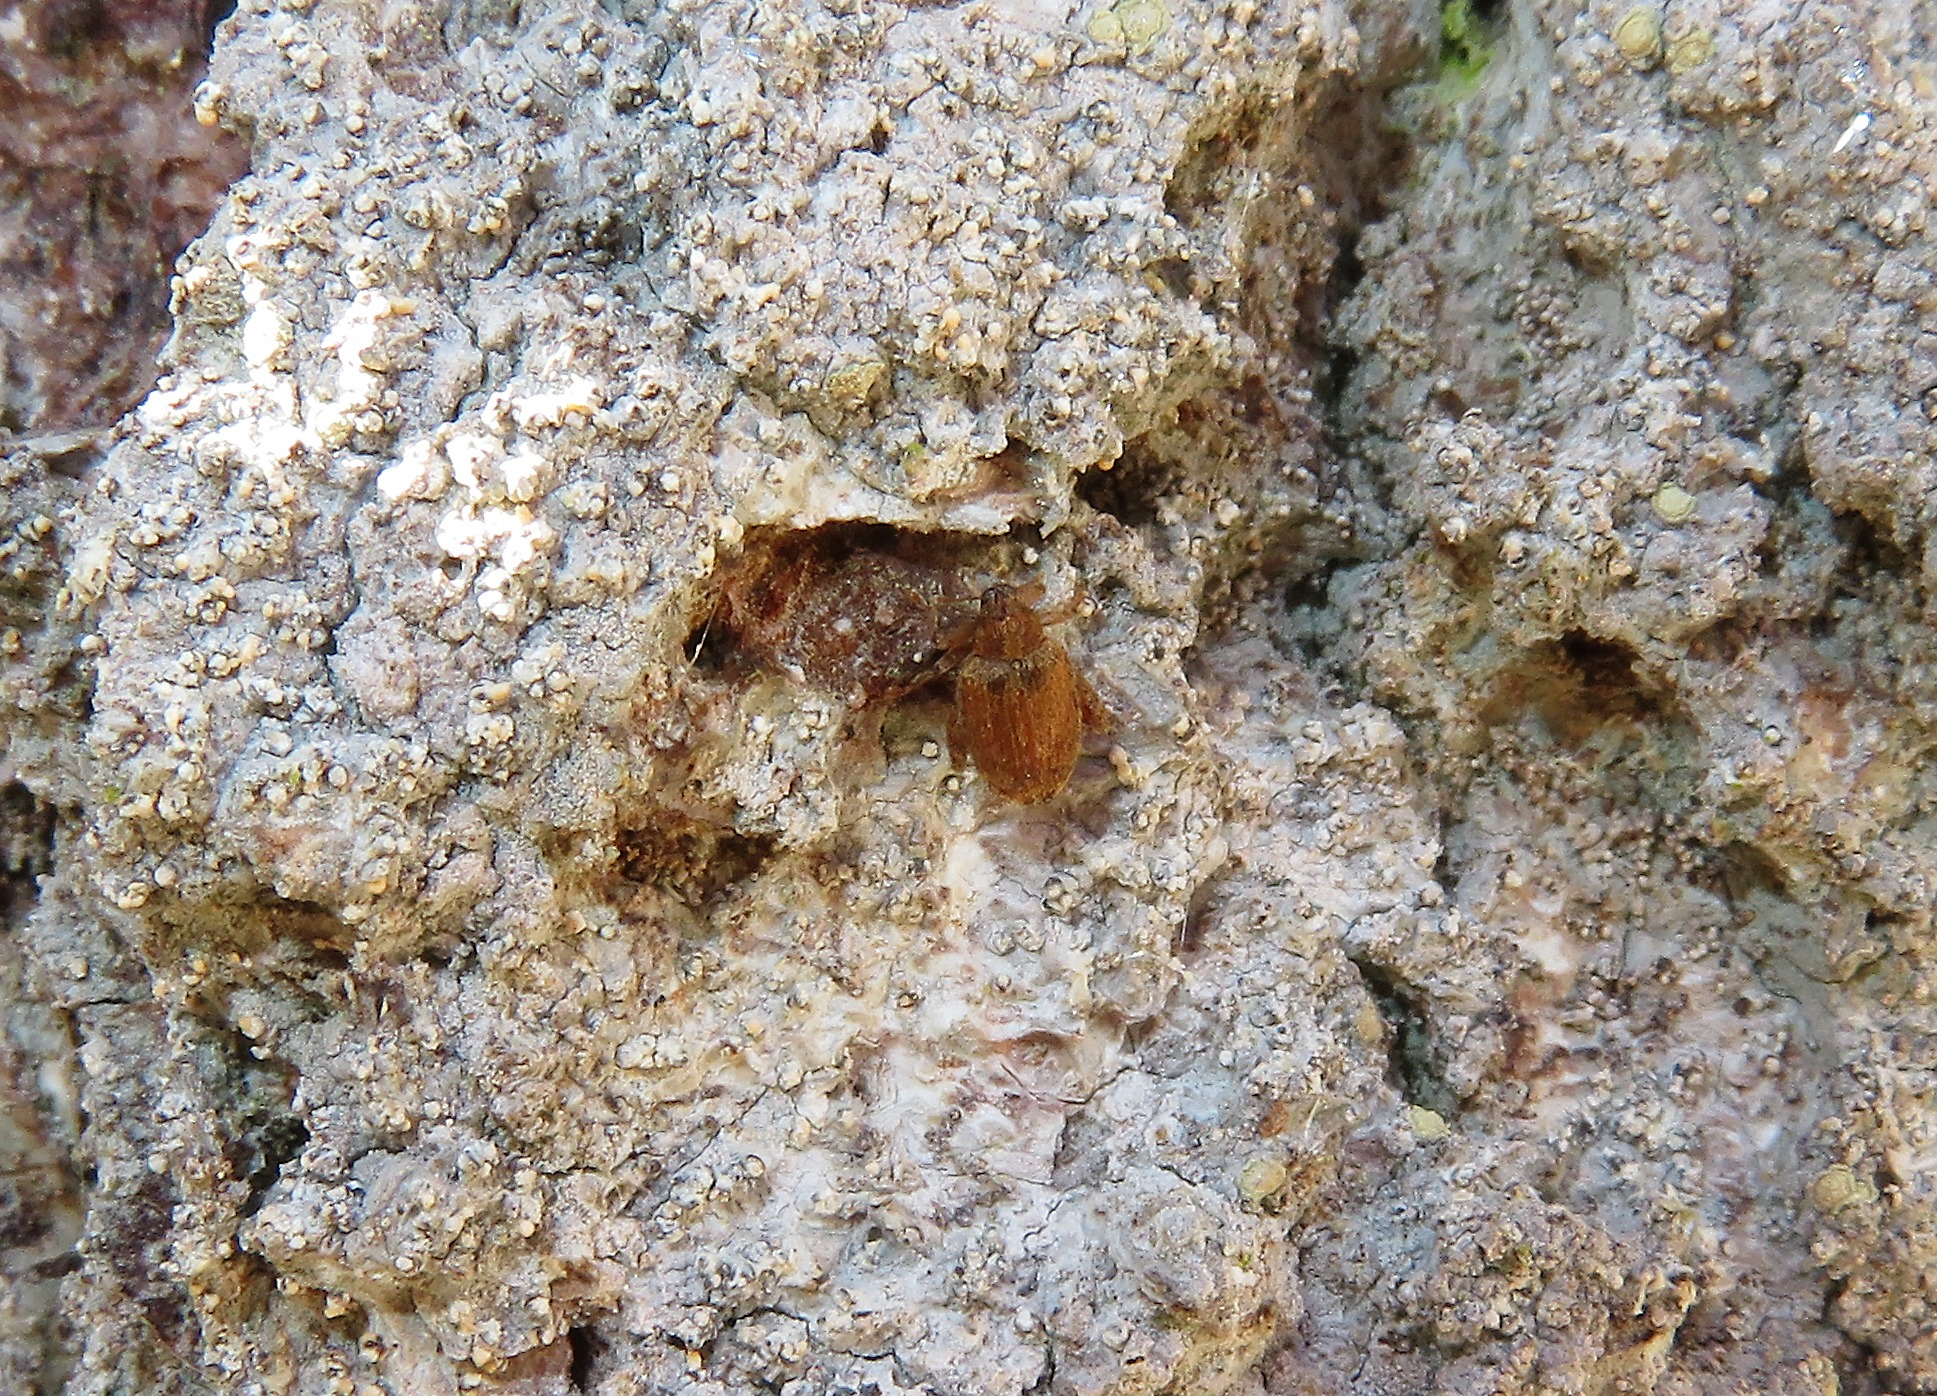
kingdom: Animalia
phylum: Arthropoda
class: Insecta
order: Coleoptera
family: Curculionidae
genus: Orchestes
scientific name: Orchestes quercus
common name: Egeloppe
